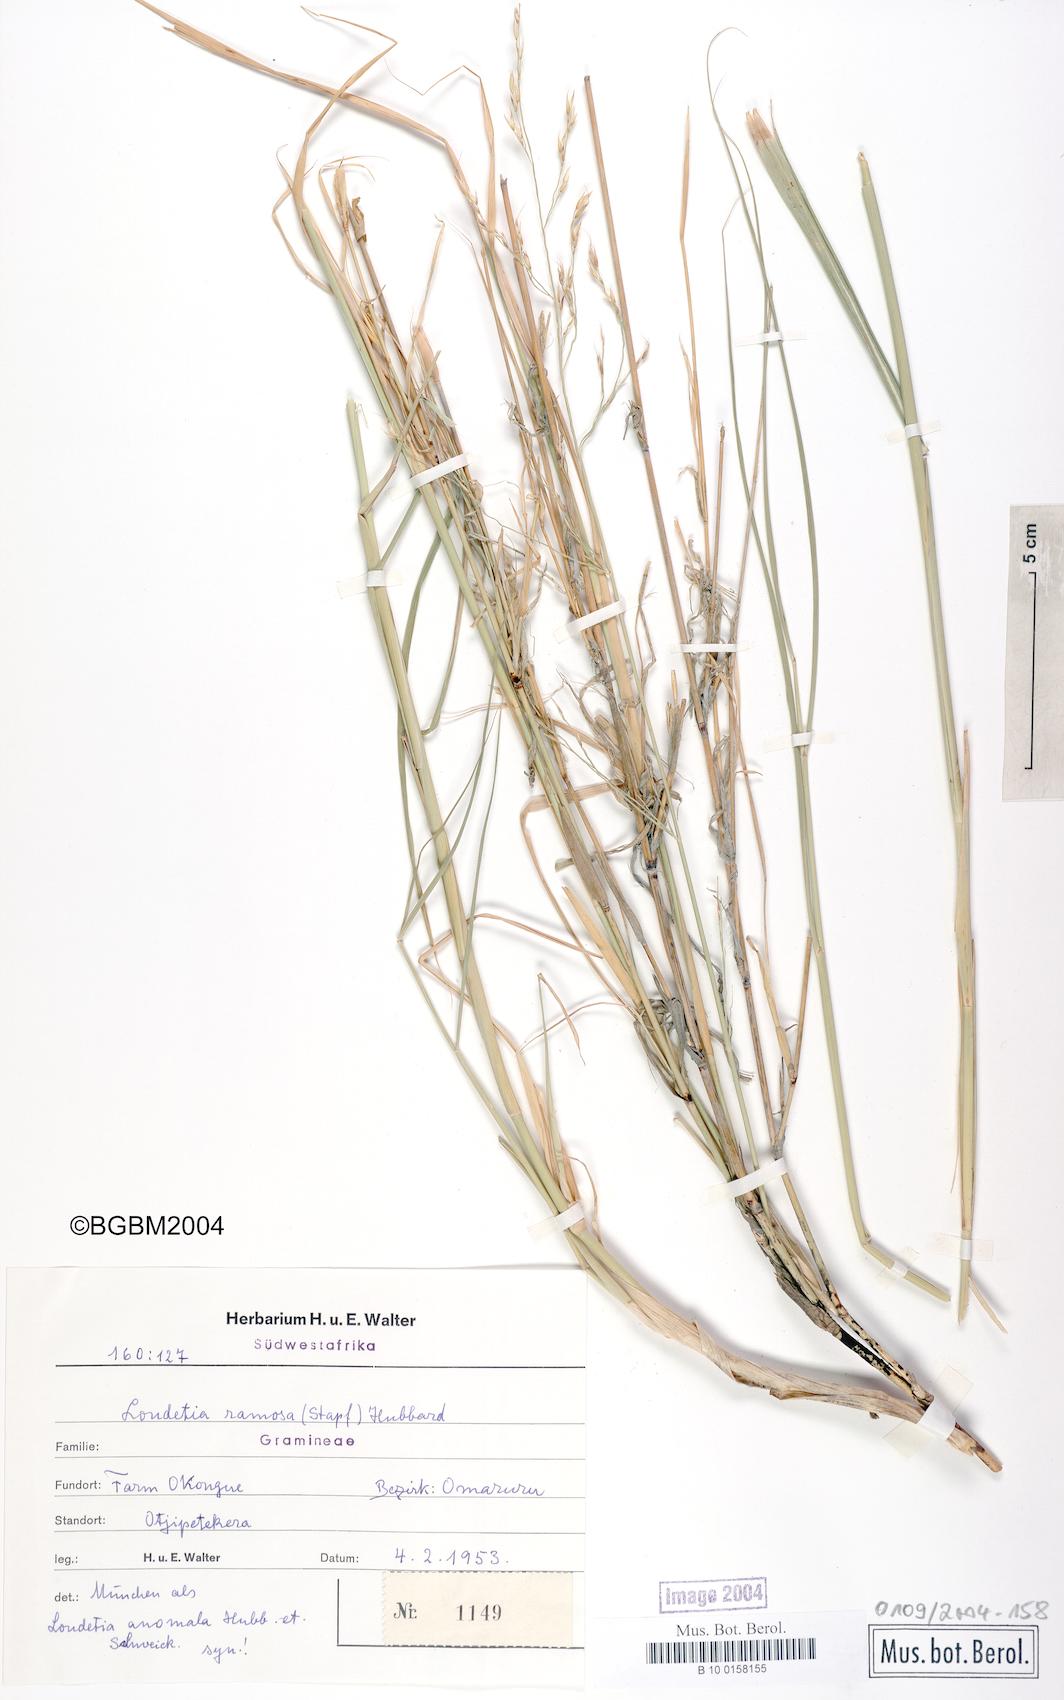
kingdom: Plantae
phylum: Tracheophyta
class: Liliopsida
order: Poales
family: Poaceae
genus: Danthoniopsis
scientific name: Danthoniopsis ramosa
